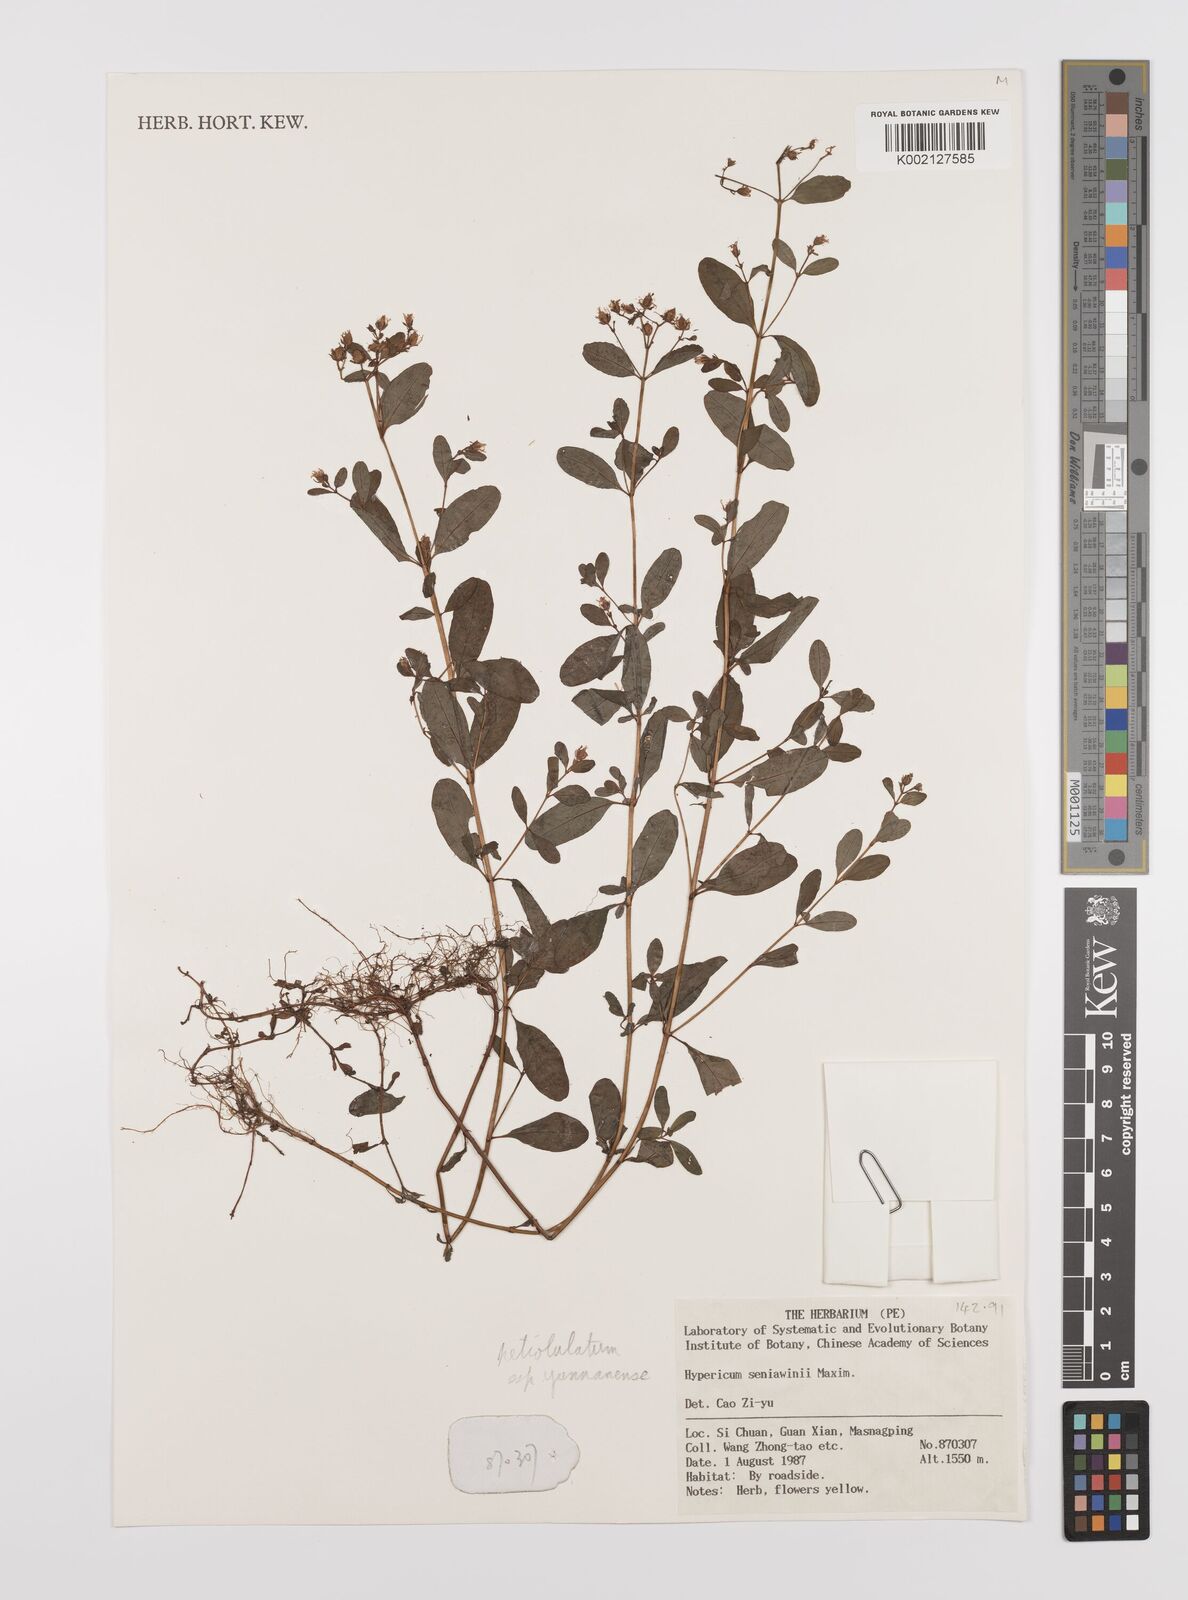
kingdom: Plantae
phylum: Tracheophyta
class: Magnoliopsida
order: Malpighiales
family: Hypericaceae
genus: Hypericum
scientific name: Hypericum petiolulatum
